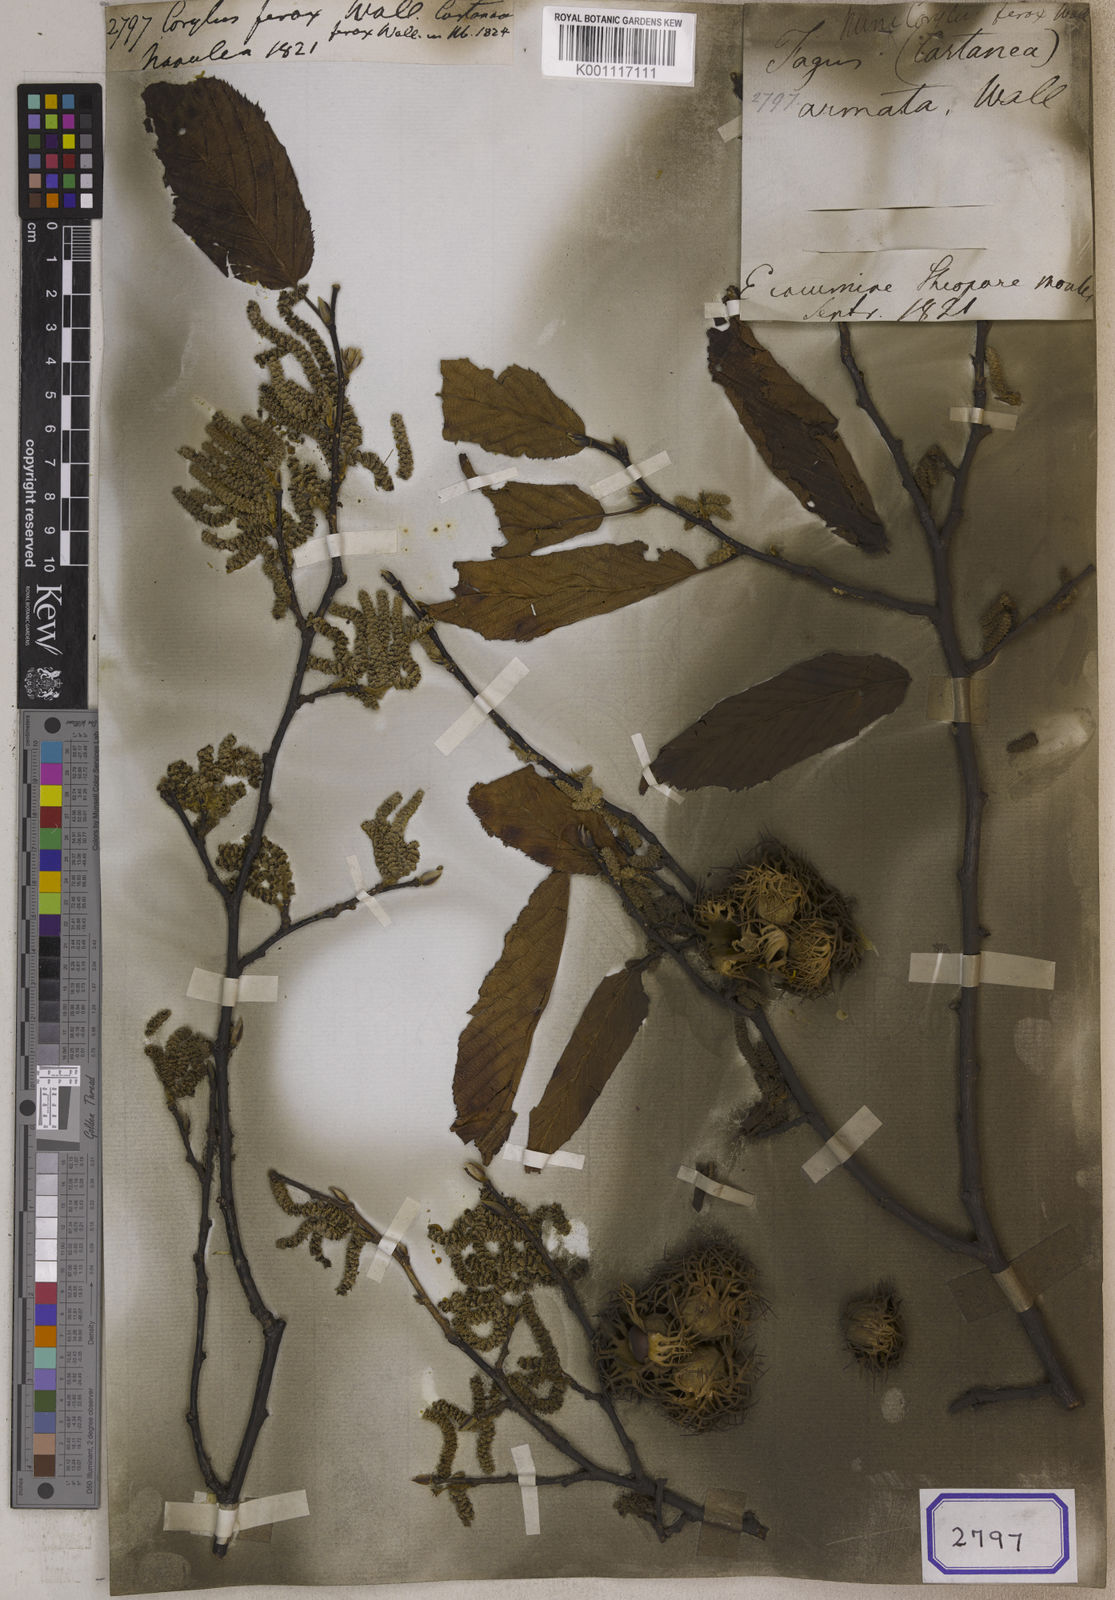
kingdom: Plantae
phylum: Tracheophyta
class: Magnoliopsida
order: Fagales
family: Betulaceae
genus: Corylus
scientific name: Corylus ferox
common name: Himalayan hazel
